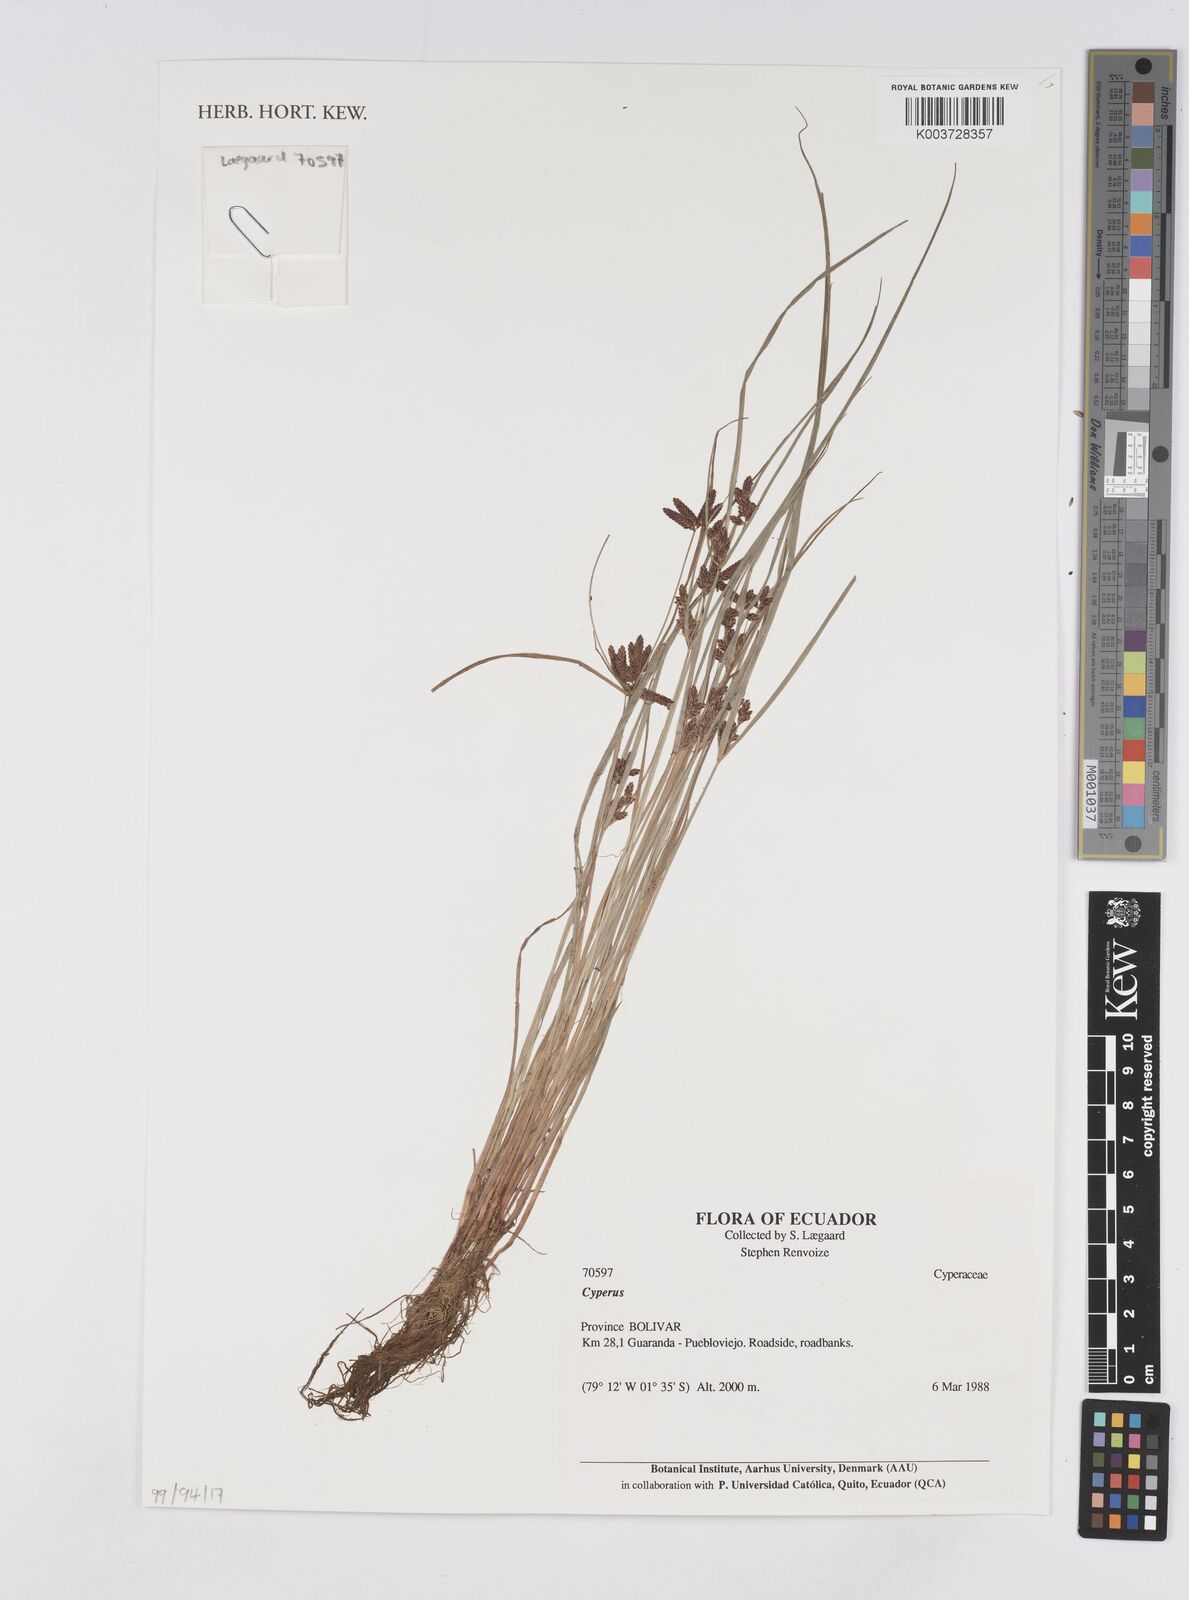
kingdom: Plantae
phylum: Tracheophyta
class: Liliopsida
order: Poales
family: Cyperaceae
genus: Cyperus
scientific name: Cyperus
